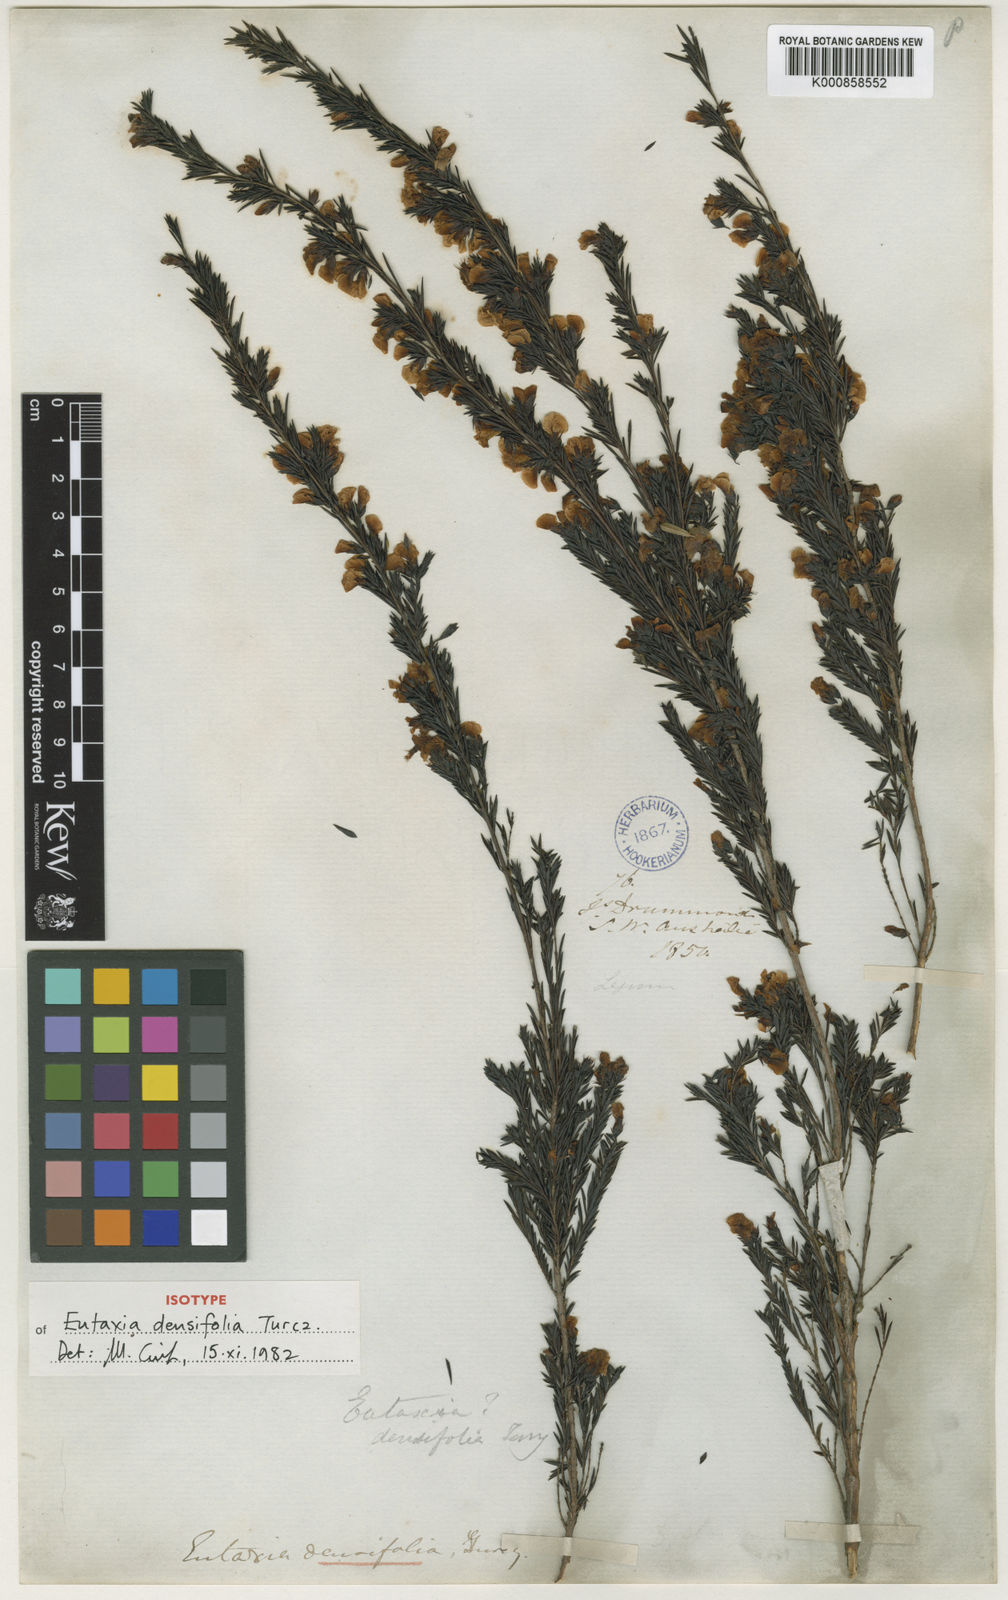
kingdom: Plantae
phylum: Tracheophyta
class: Magnoliopsida
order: Fabales
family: Fabaceae
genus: Eutaxia
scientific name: Eutaxia parvifolia
